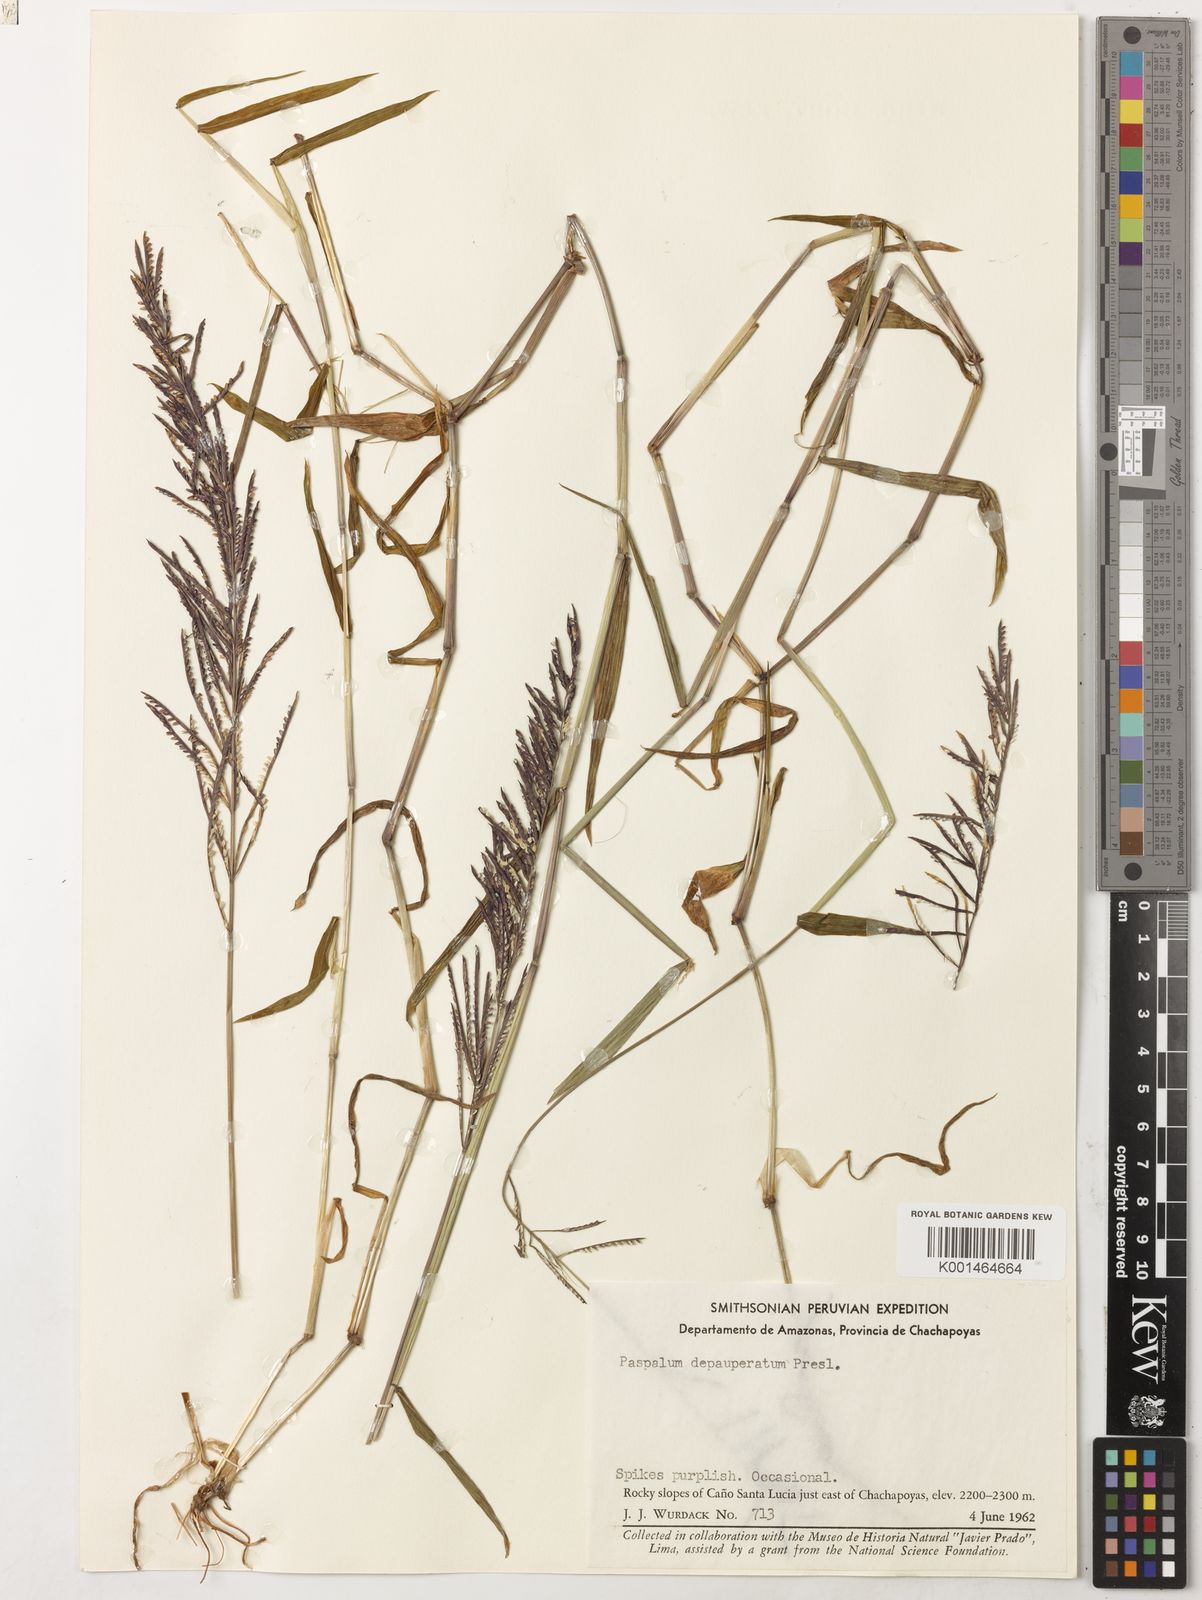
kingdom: Plantae
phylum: Tracheophyta
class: Liliopsida
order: Poales
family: Poaceae
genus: Paspalum
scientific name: Paspalum candidum
